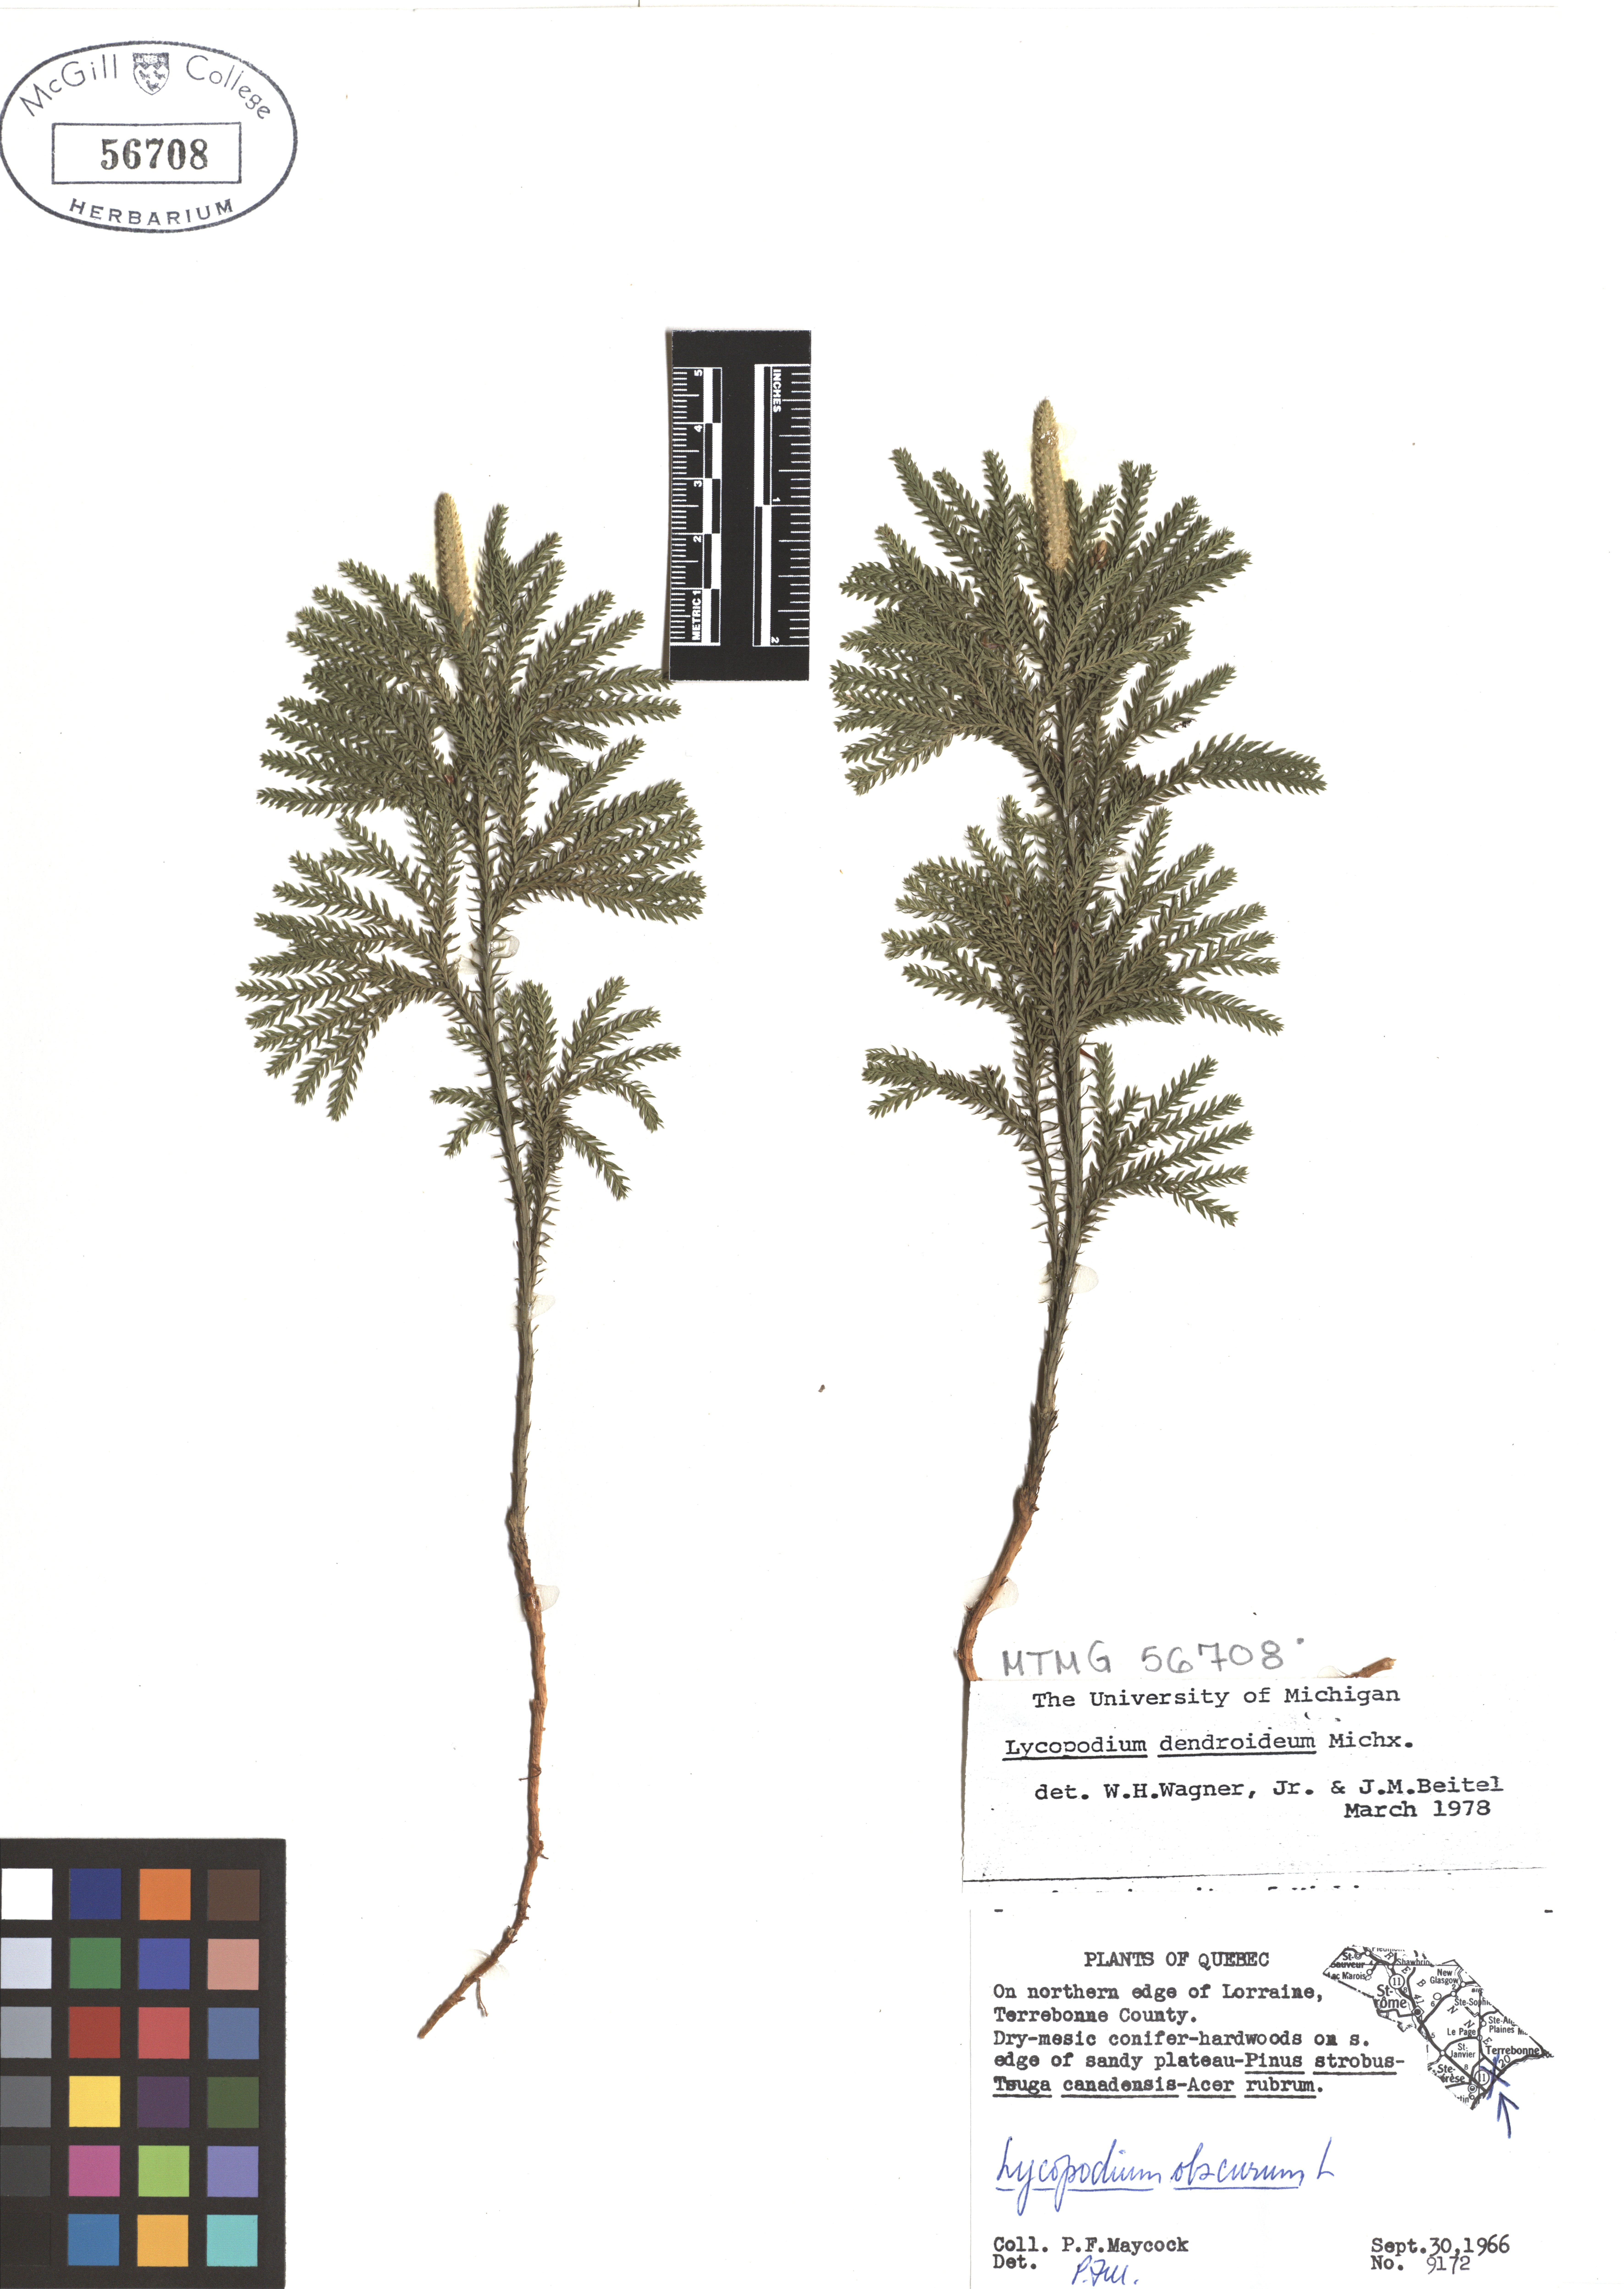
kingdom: Plantae
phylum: Tracheophyta
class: Lycopodiopsida
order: Lycopodiales
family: Lycopodiaceae
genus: Dendrolycopodium
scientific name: Dendrolycopodium dendroideum
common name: Northern tree-clubmoss
